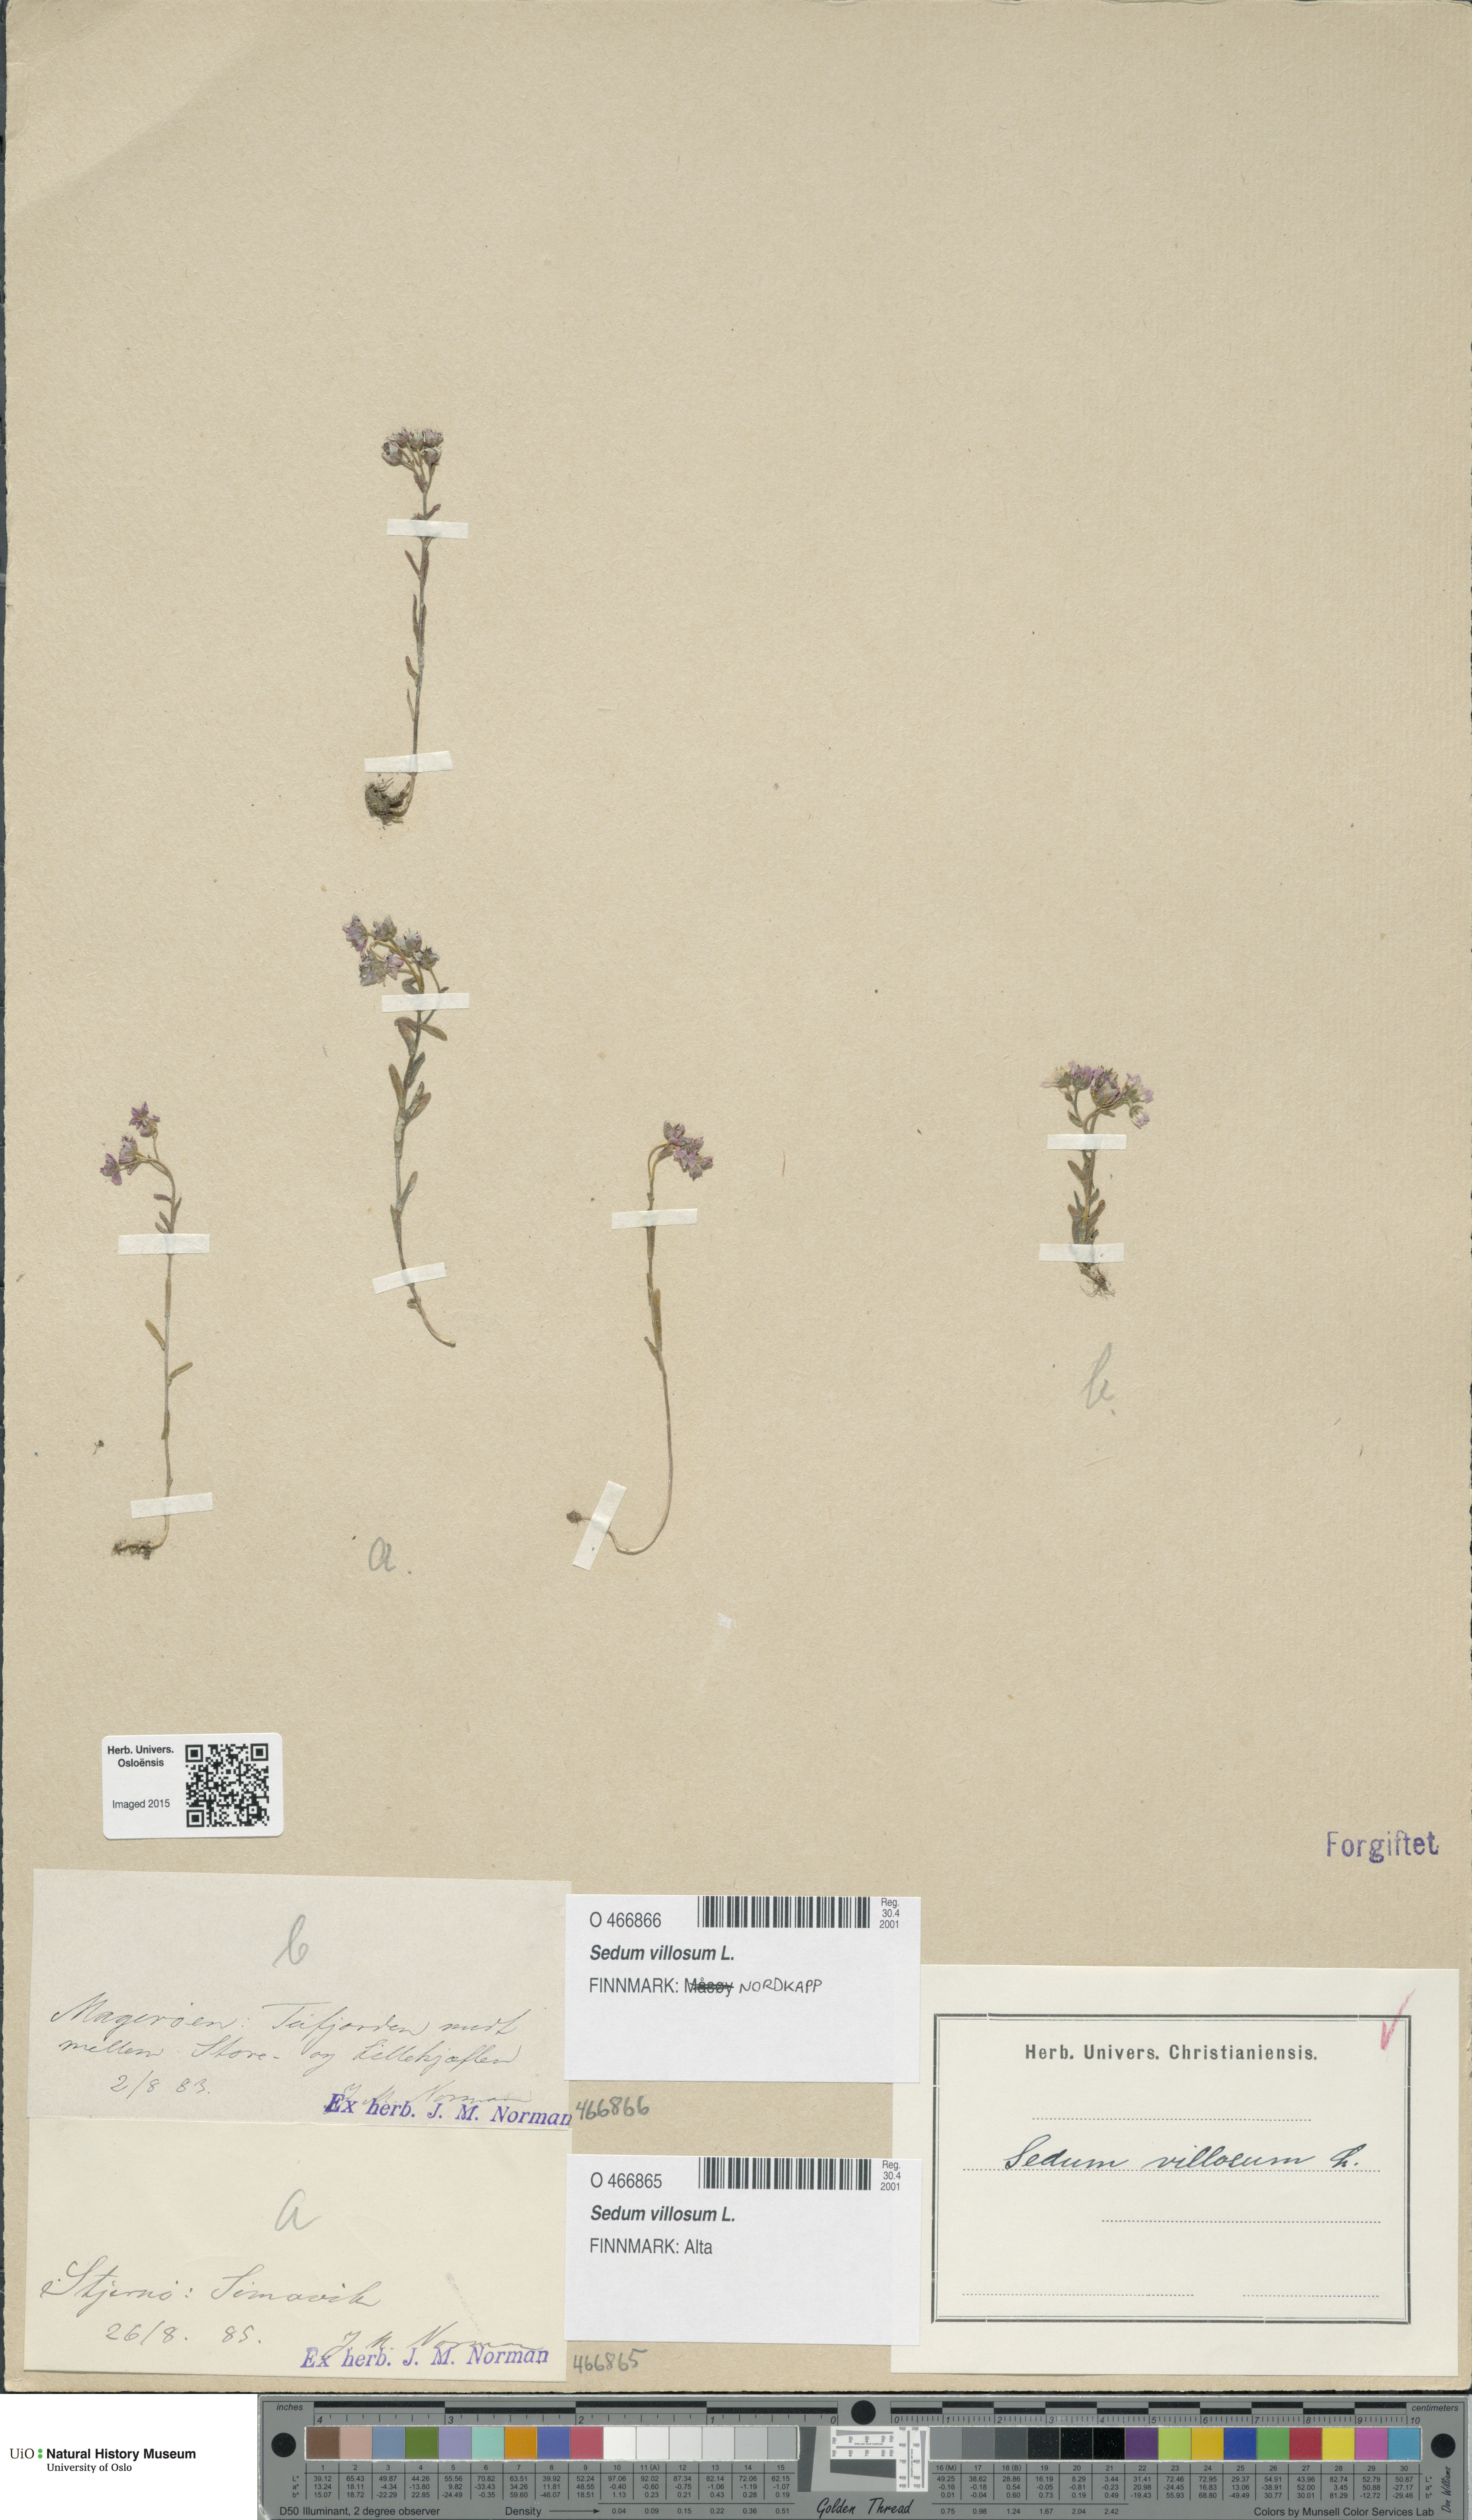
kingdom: Plantae
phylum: Tracheophyta
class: Magnoliopsida
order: Saxifragales
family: Crassulaceae
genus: Sedum
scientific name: Sedum villosum
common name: Hairy stonecrop
